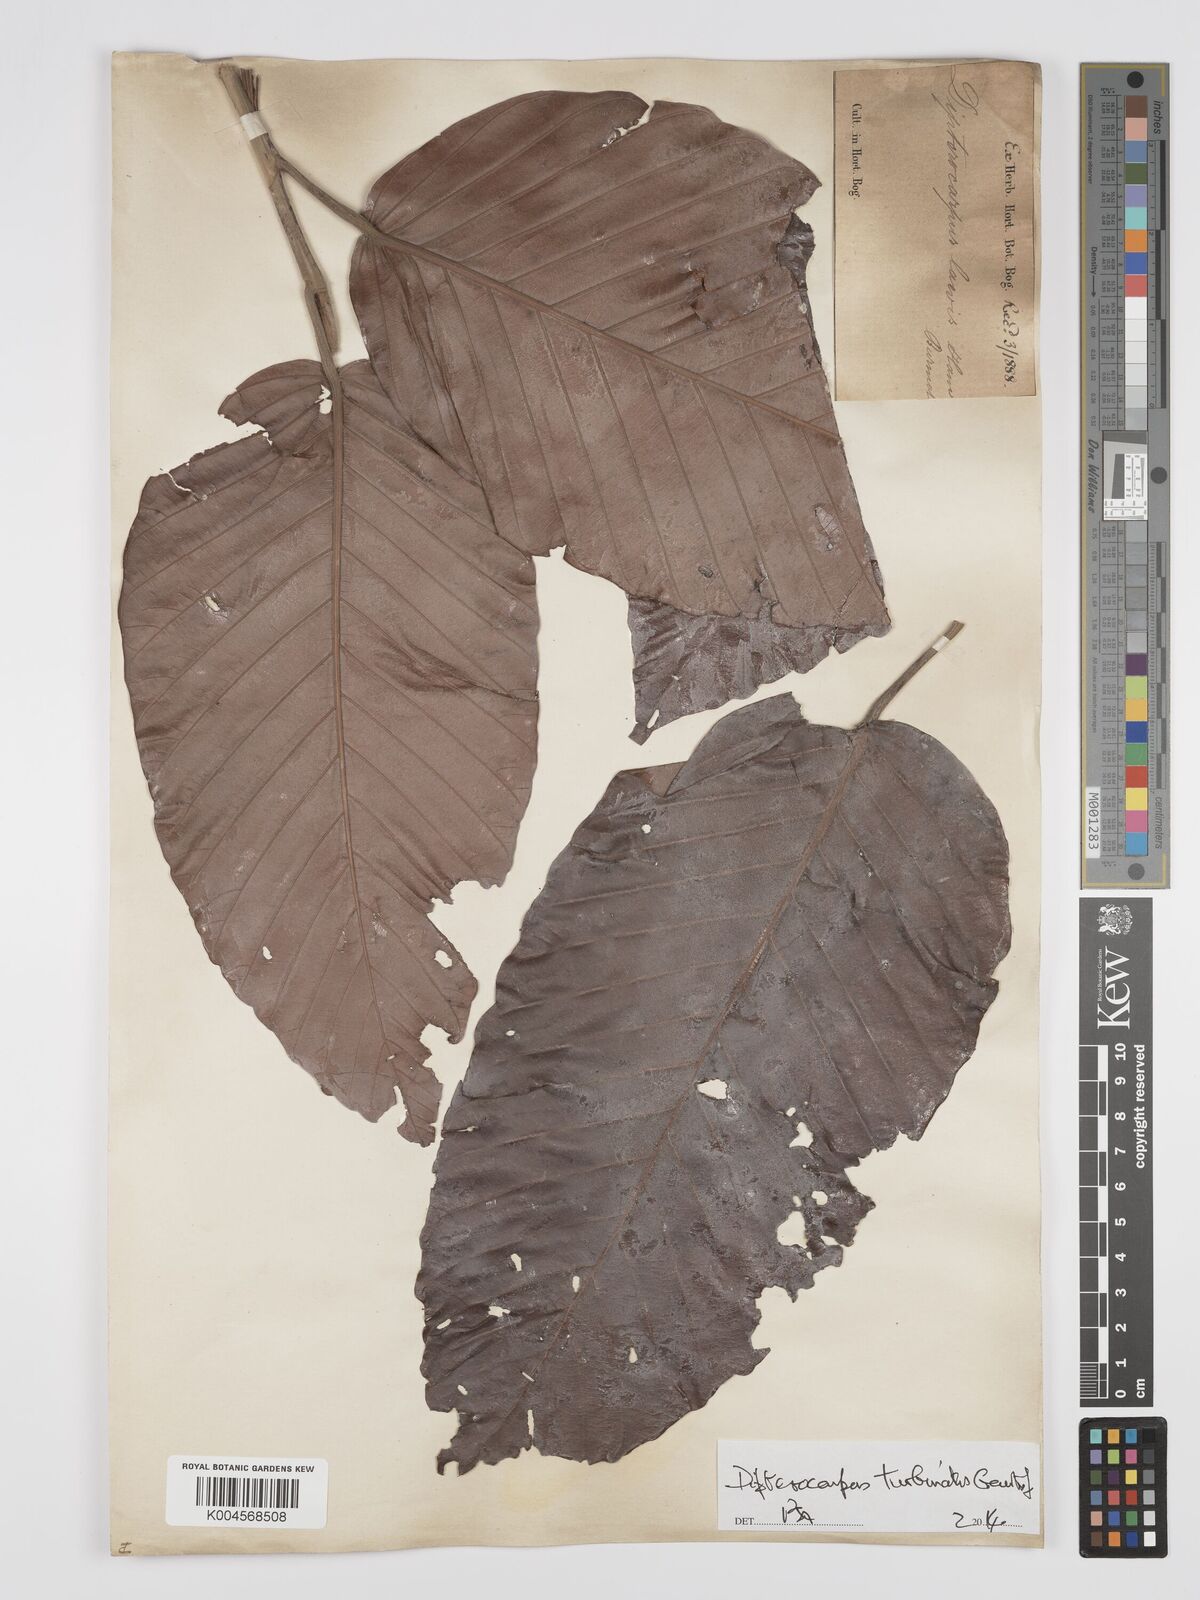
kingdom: Plantae
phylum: Tracheophyta
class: Magnoliopsida
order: Malvales
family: Dipterocarpaceae
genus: Dipterocarpus
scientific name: Dipterocarpus turbinatus
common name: East indian copaiba balsam
